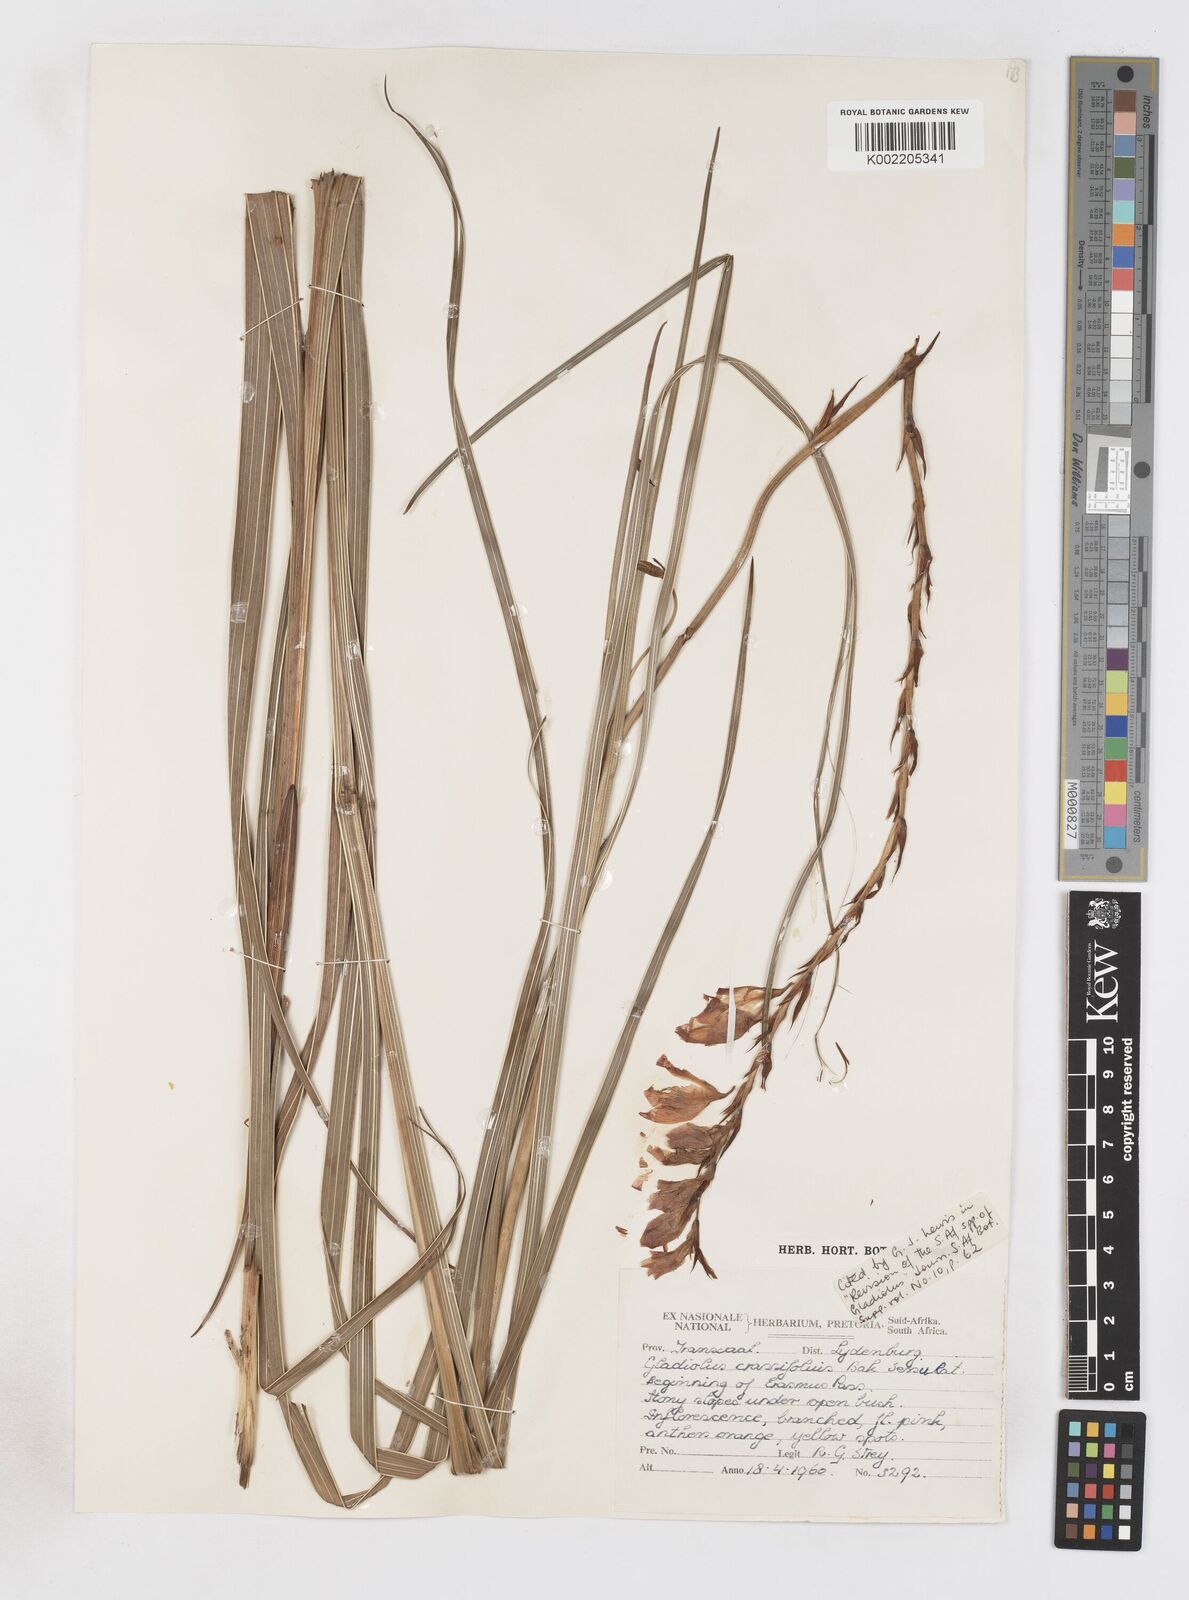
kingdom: Plantae
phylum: Tracheophyta
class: Liliopsida
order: Asparagales
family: Iridaceae
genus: Gladiolus
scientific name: Gladiolus crassifolius
